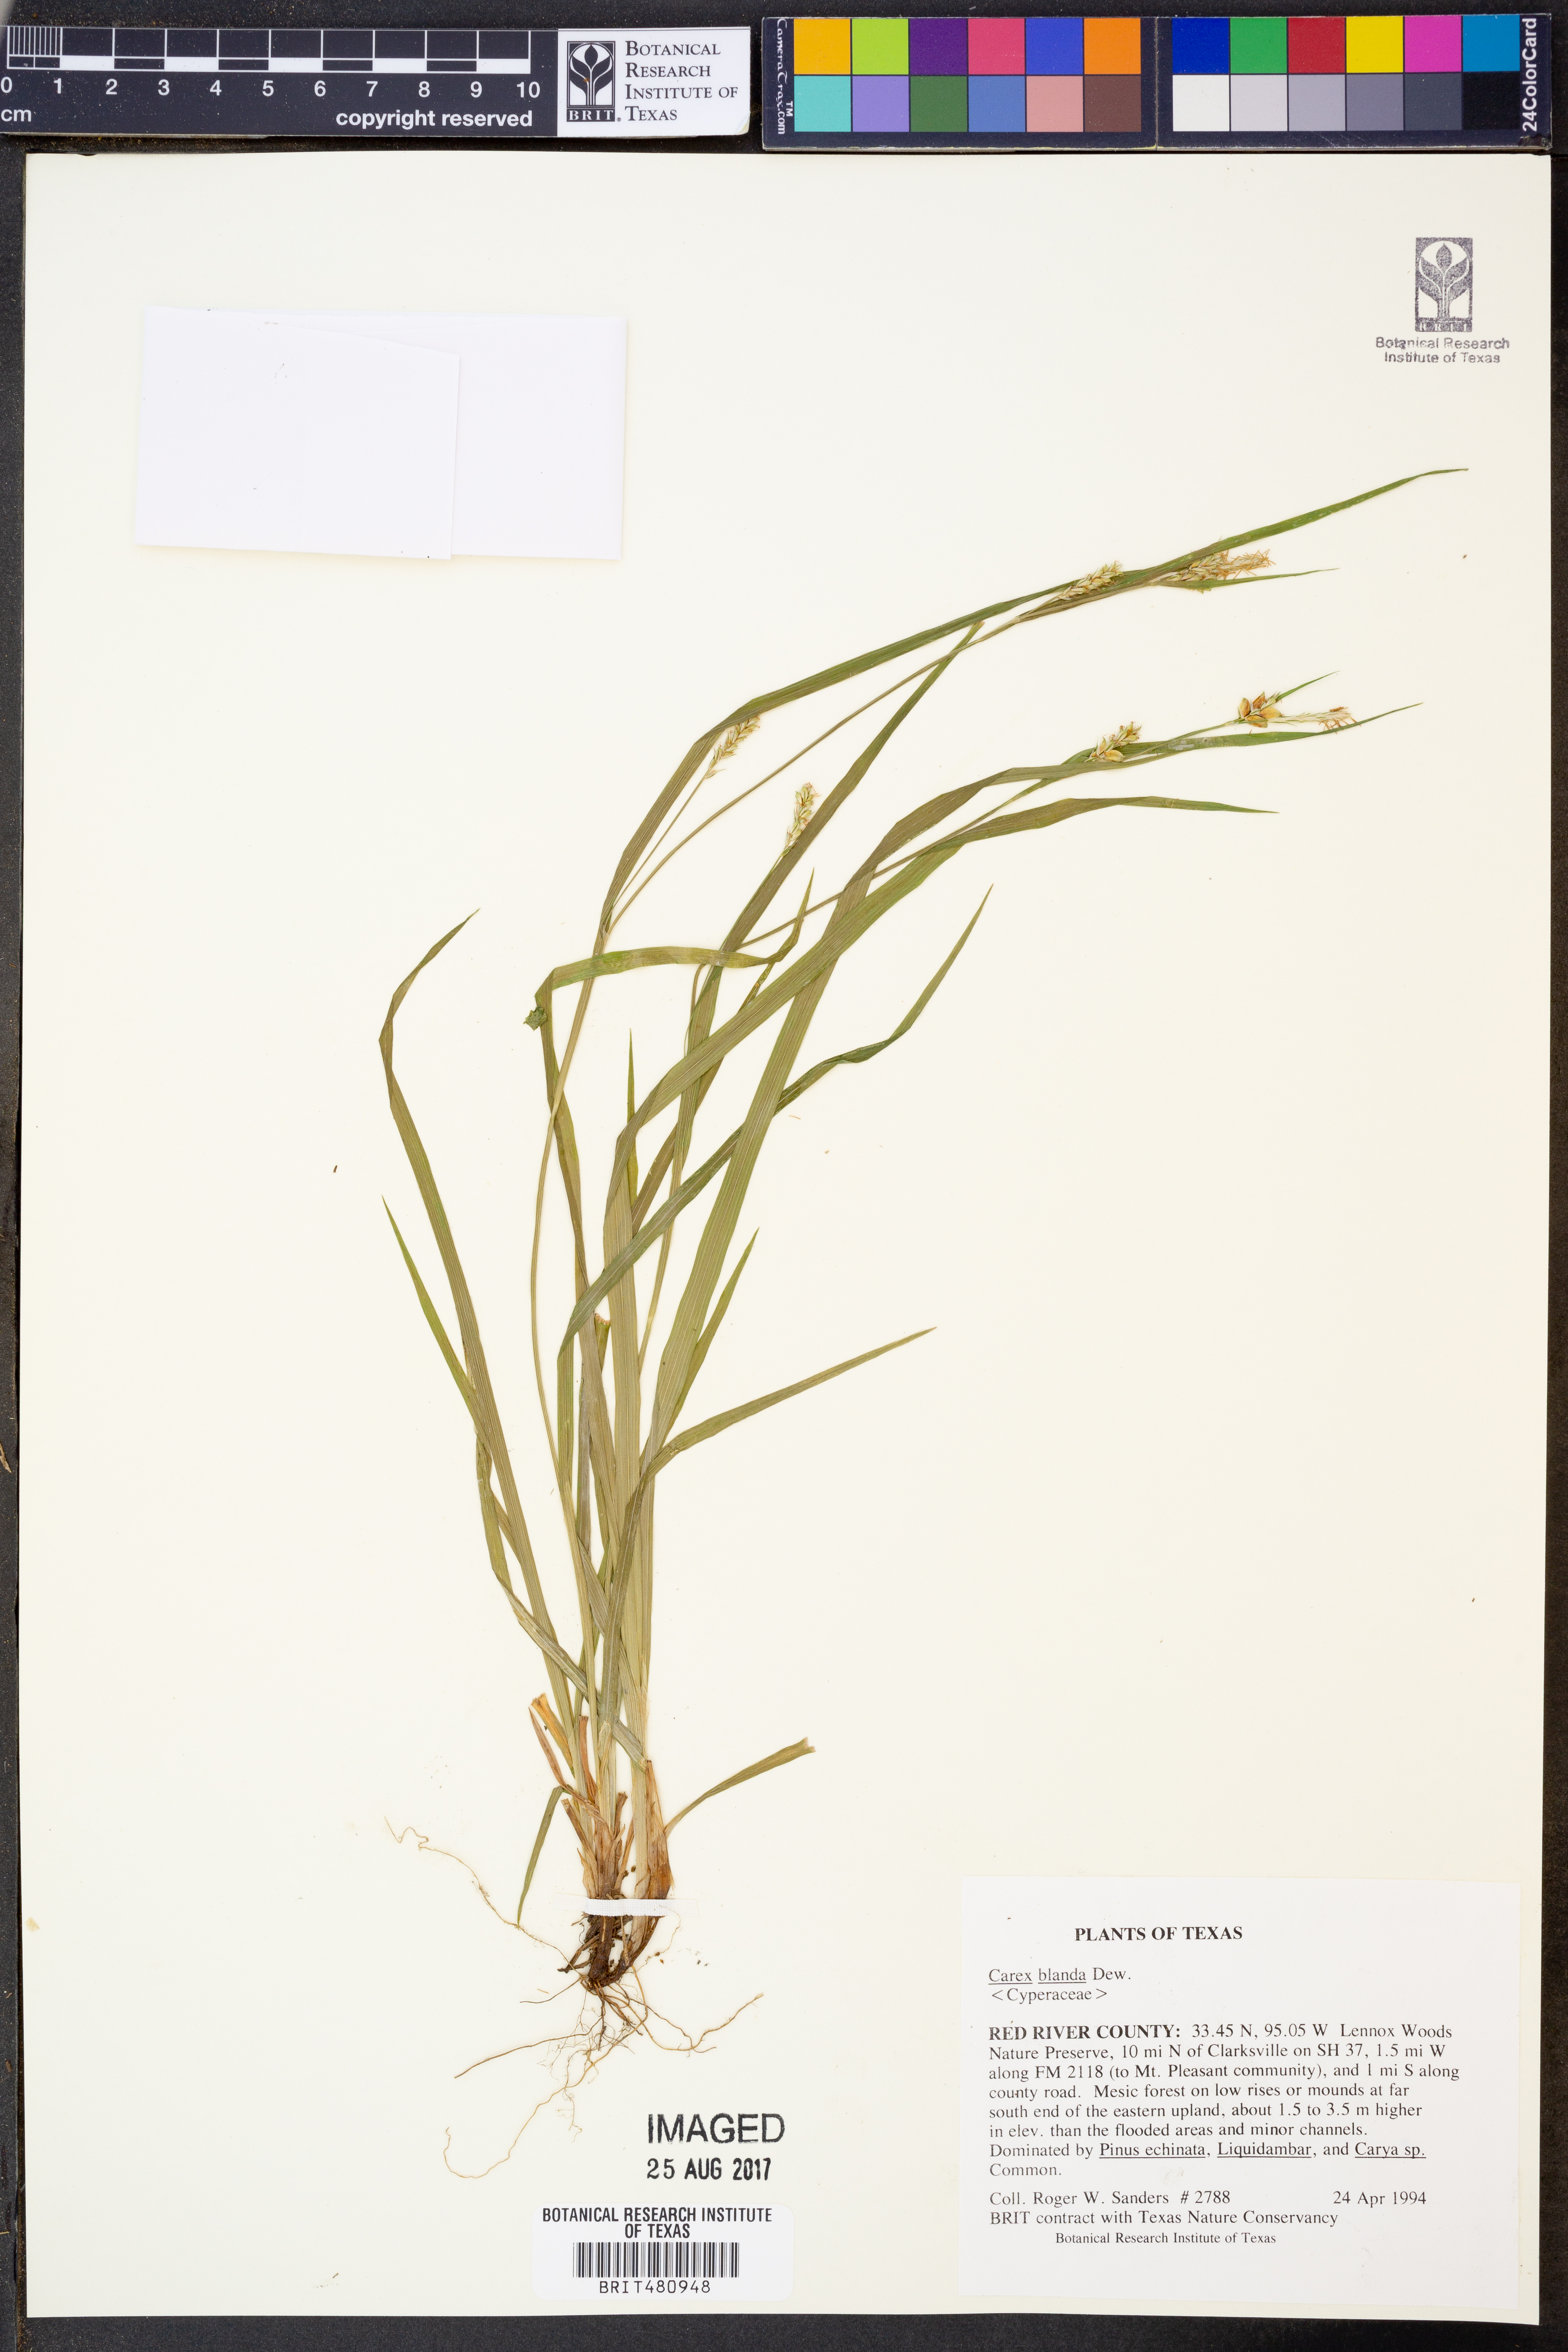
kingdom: Plantae
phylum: Tracheophyta
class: Liliopsida
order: Poales
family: Cyperaceae
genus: Carex
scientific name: Carex blanda
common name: Bland sedge
